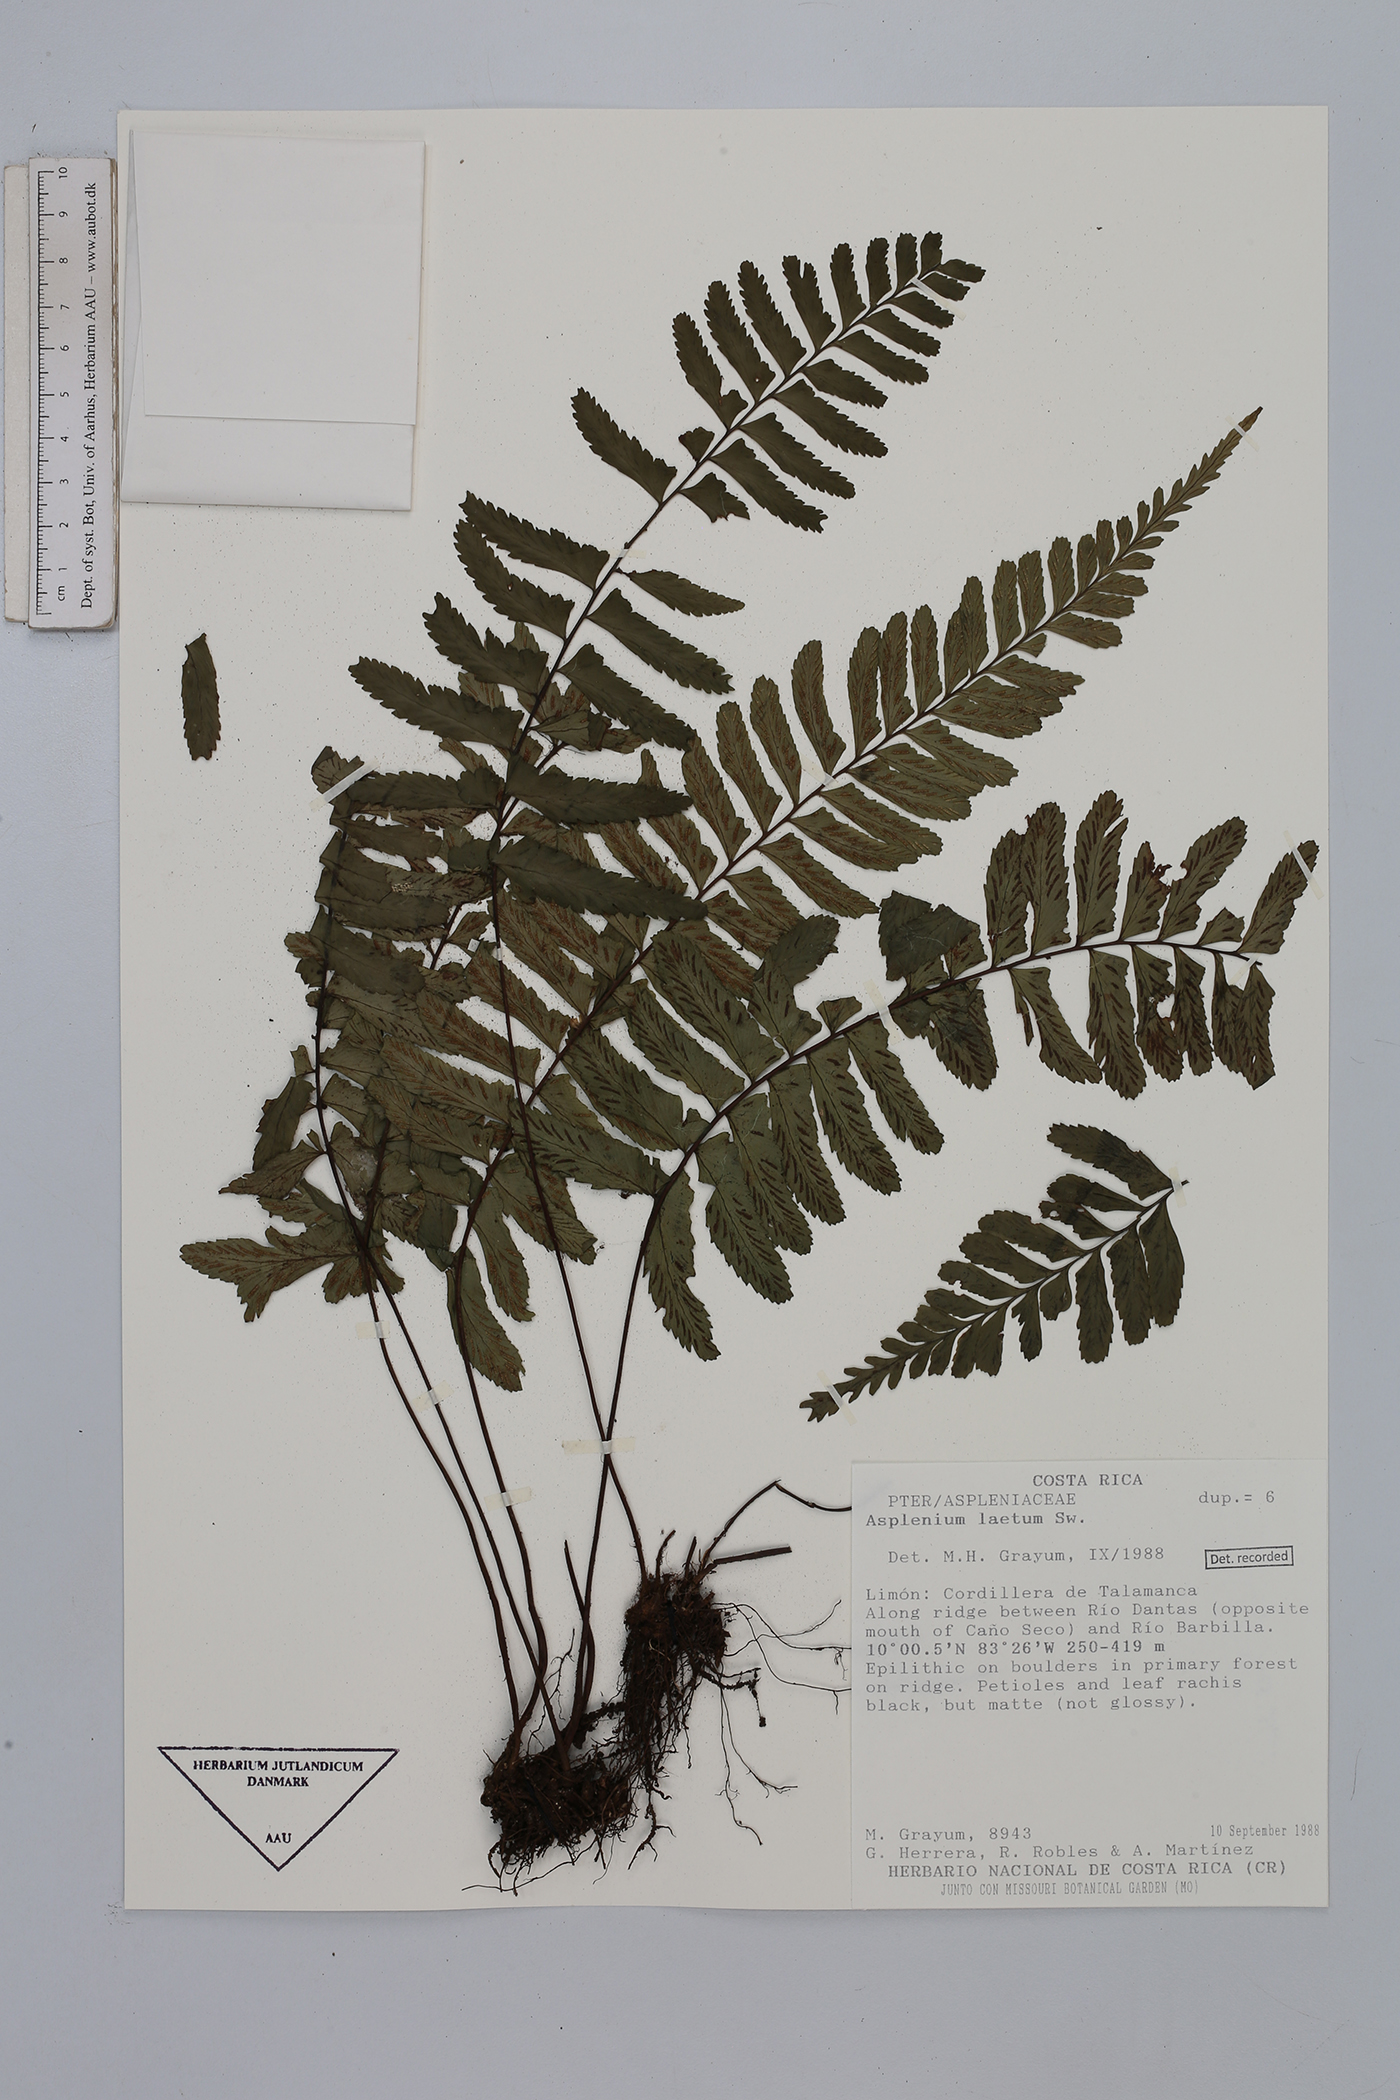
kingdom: Plantae
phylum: Tracheophyta
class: Polypodiopsida
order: Polypodiales
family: Aspleniaceae
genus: Hymenasplenium
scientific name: Hymenasplenium laetum
